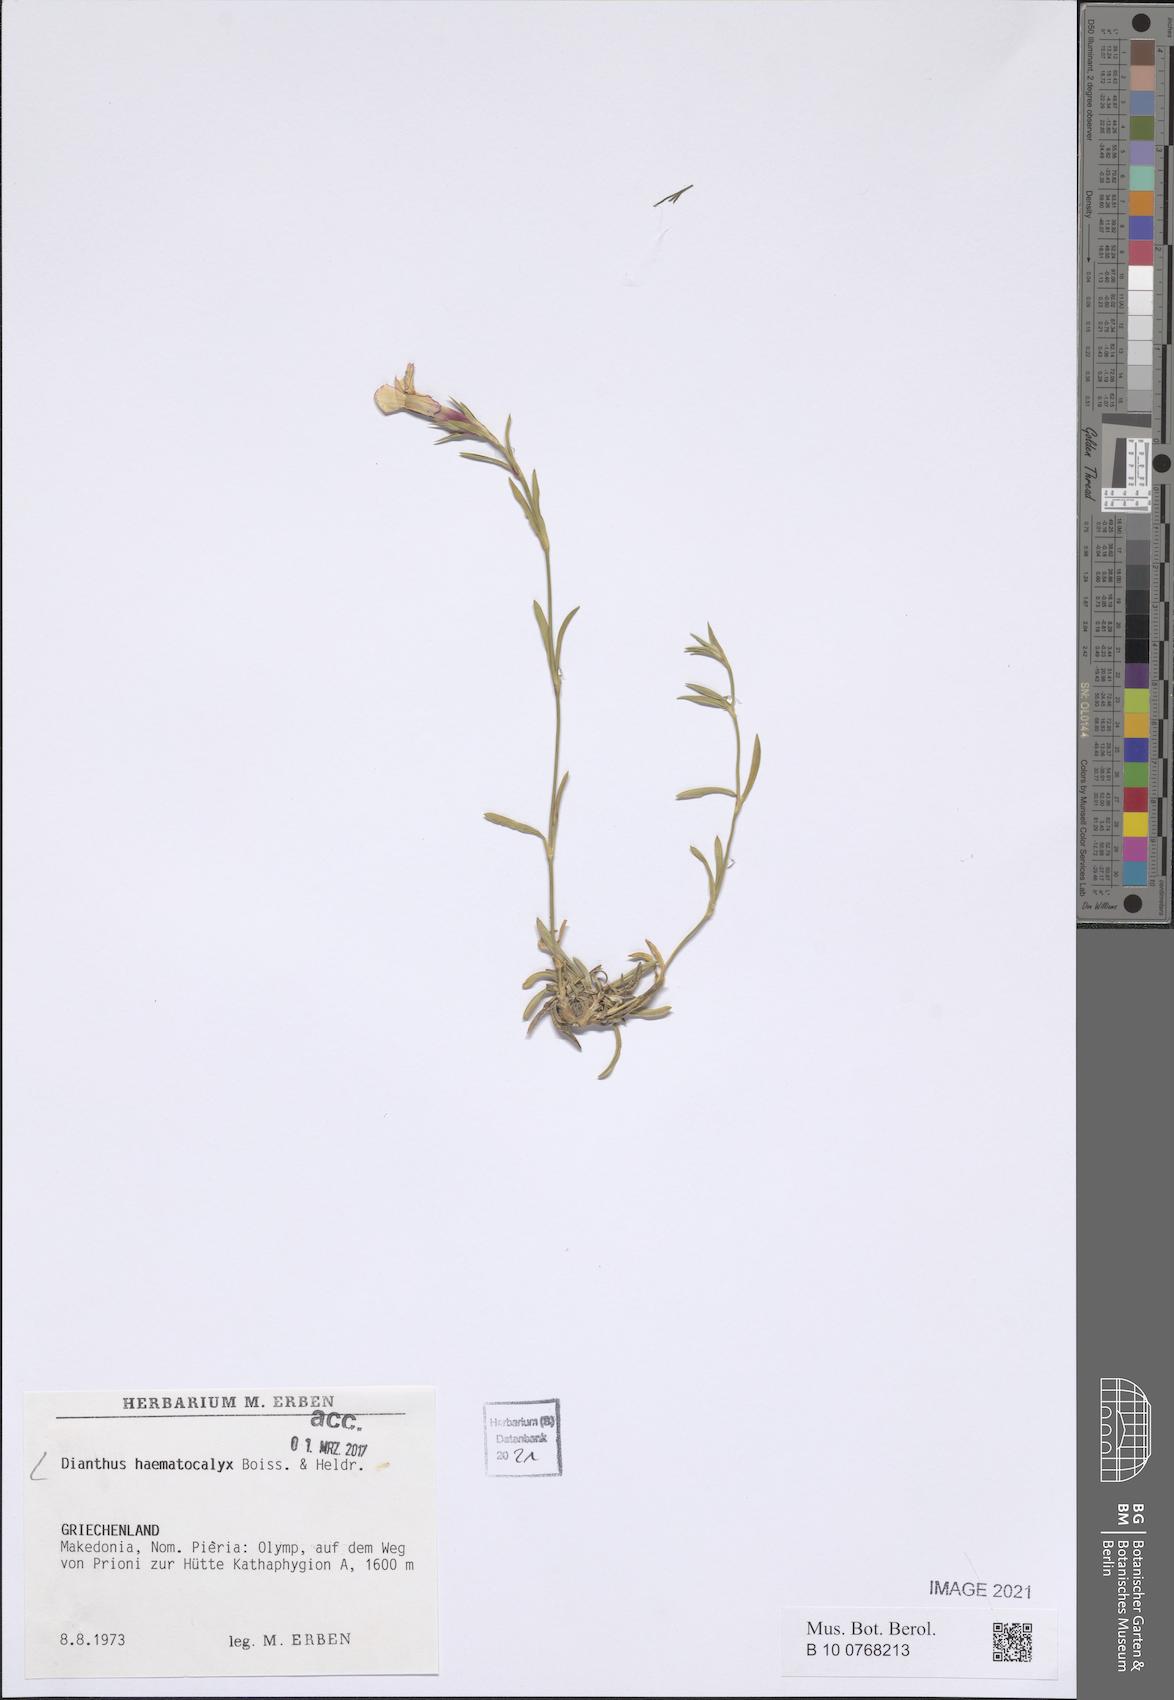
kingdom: Plantae
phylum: Tracheophyta
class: Magnoliopsida
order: Caryophyllales
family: Caryophyllaceae
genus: Dianthus
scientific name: Dianthus haematocalyx
